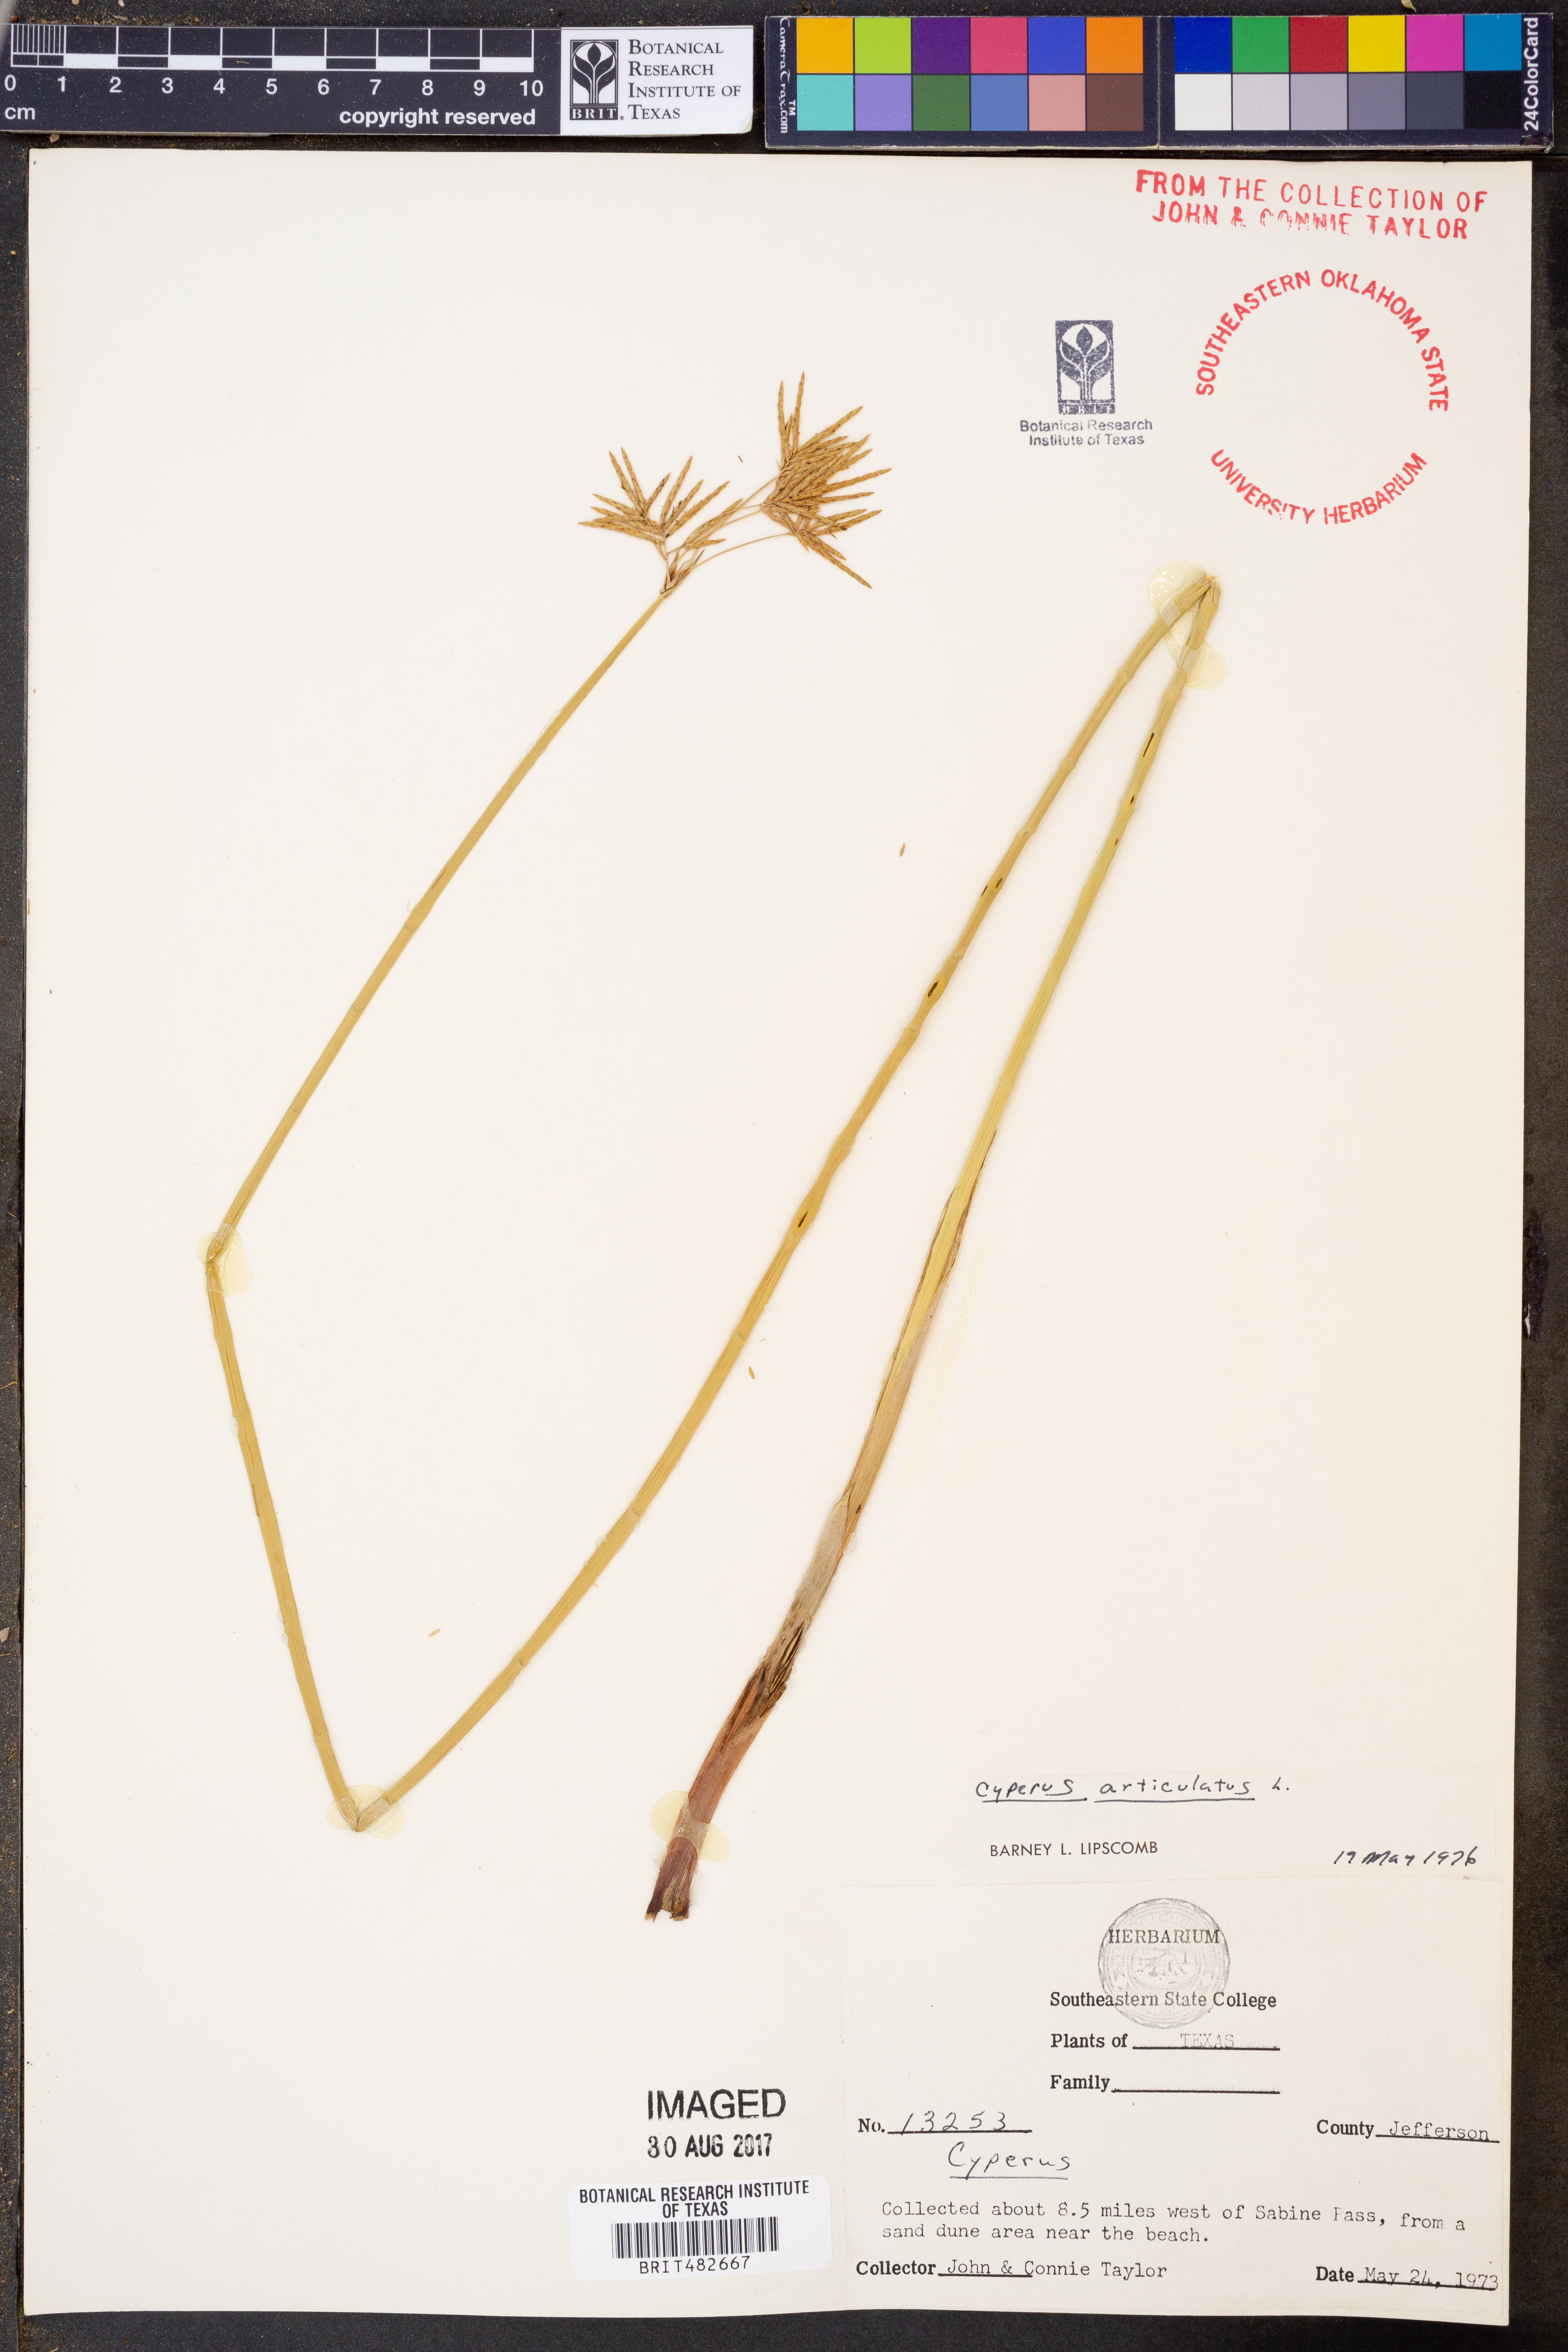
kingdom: Plantae
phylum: Tracheophyta
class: Liliopsida
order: Poales
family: Cyperaceae
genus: Cyperus
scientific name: Cyperus articulatus
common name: Jointed flatsedge
